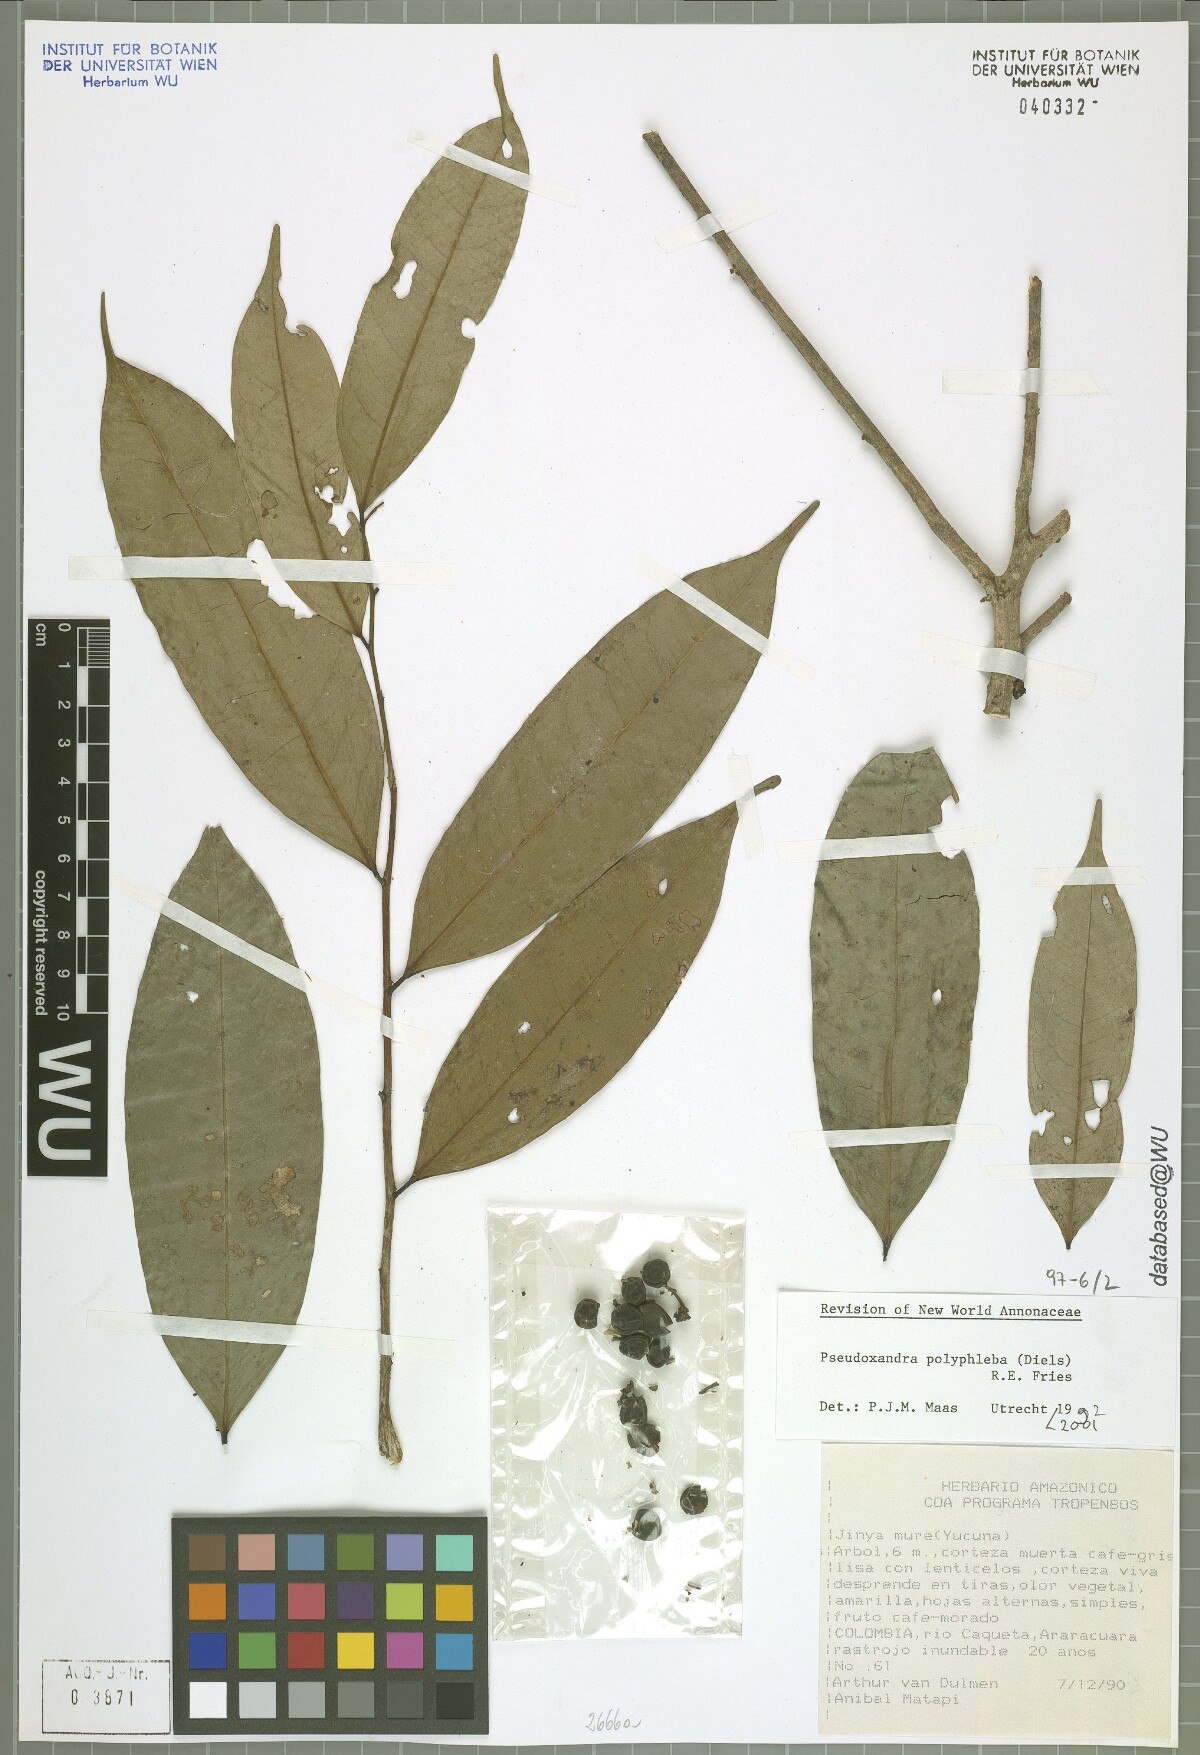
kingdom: Plantae
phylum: Tracheophyta
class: Magnoliopsida
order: Magnoliales
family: Annonaceae
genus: Pseudoxandra
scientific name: Pseudoxandra polyphleba
